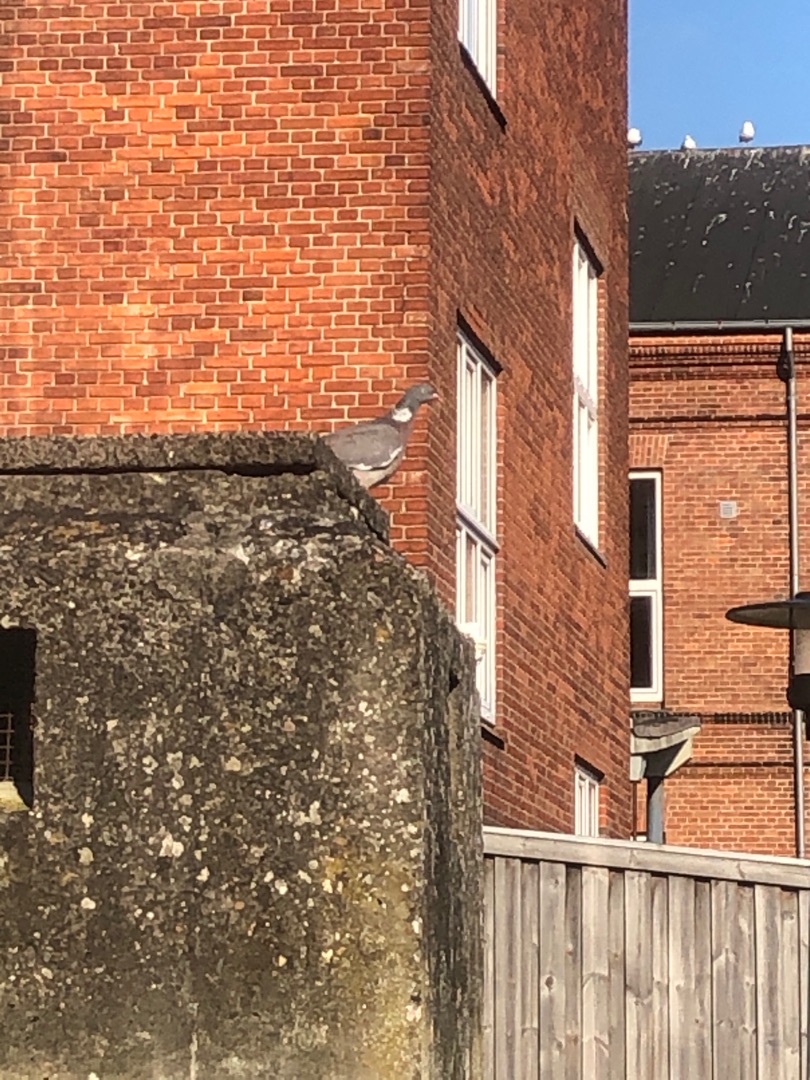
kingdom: Animalia
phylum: Chordata
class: Aves
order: Columbiformes
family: Columbidae
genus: Columba
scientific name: Columba palumbus
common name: Ringdue
